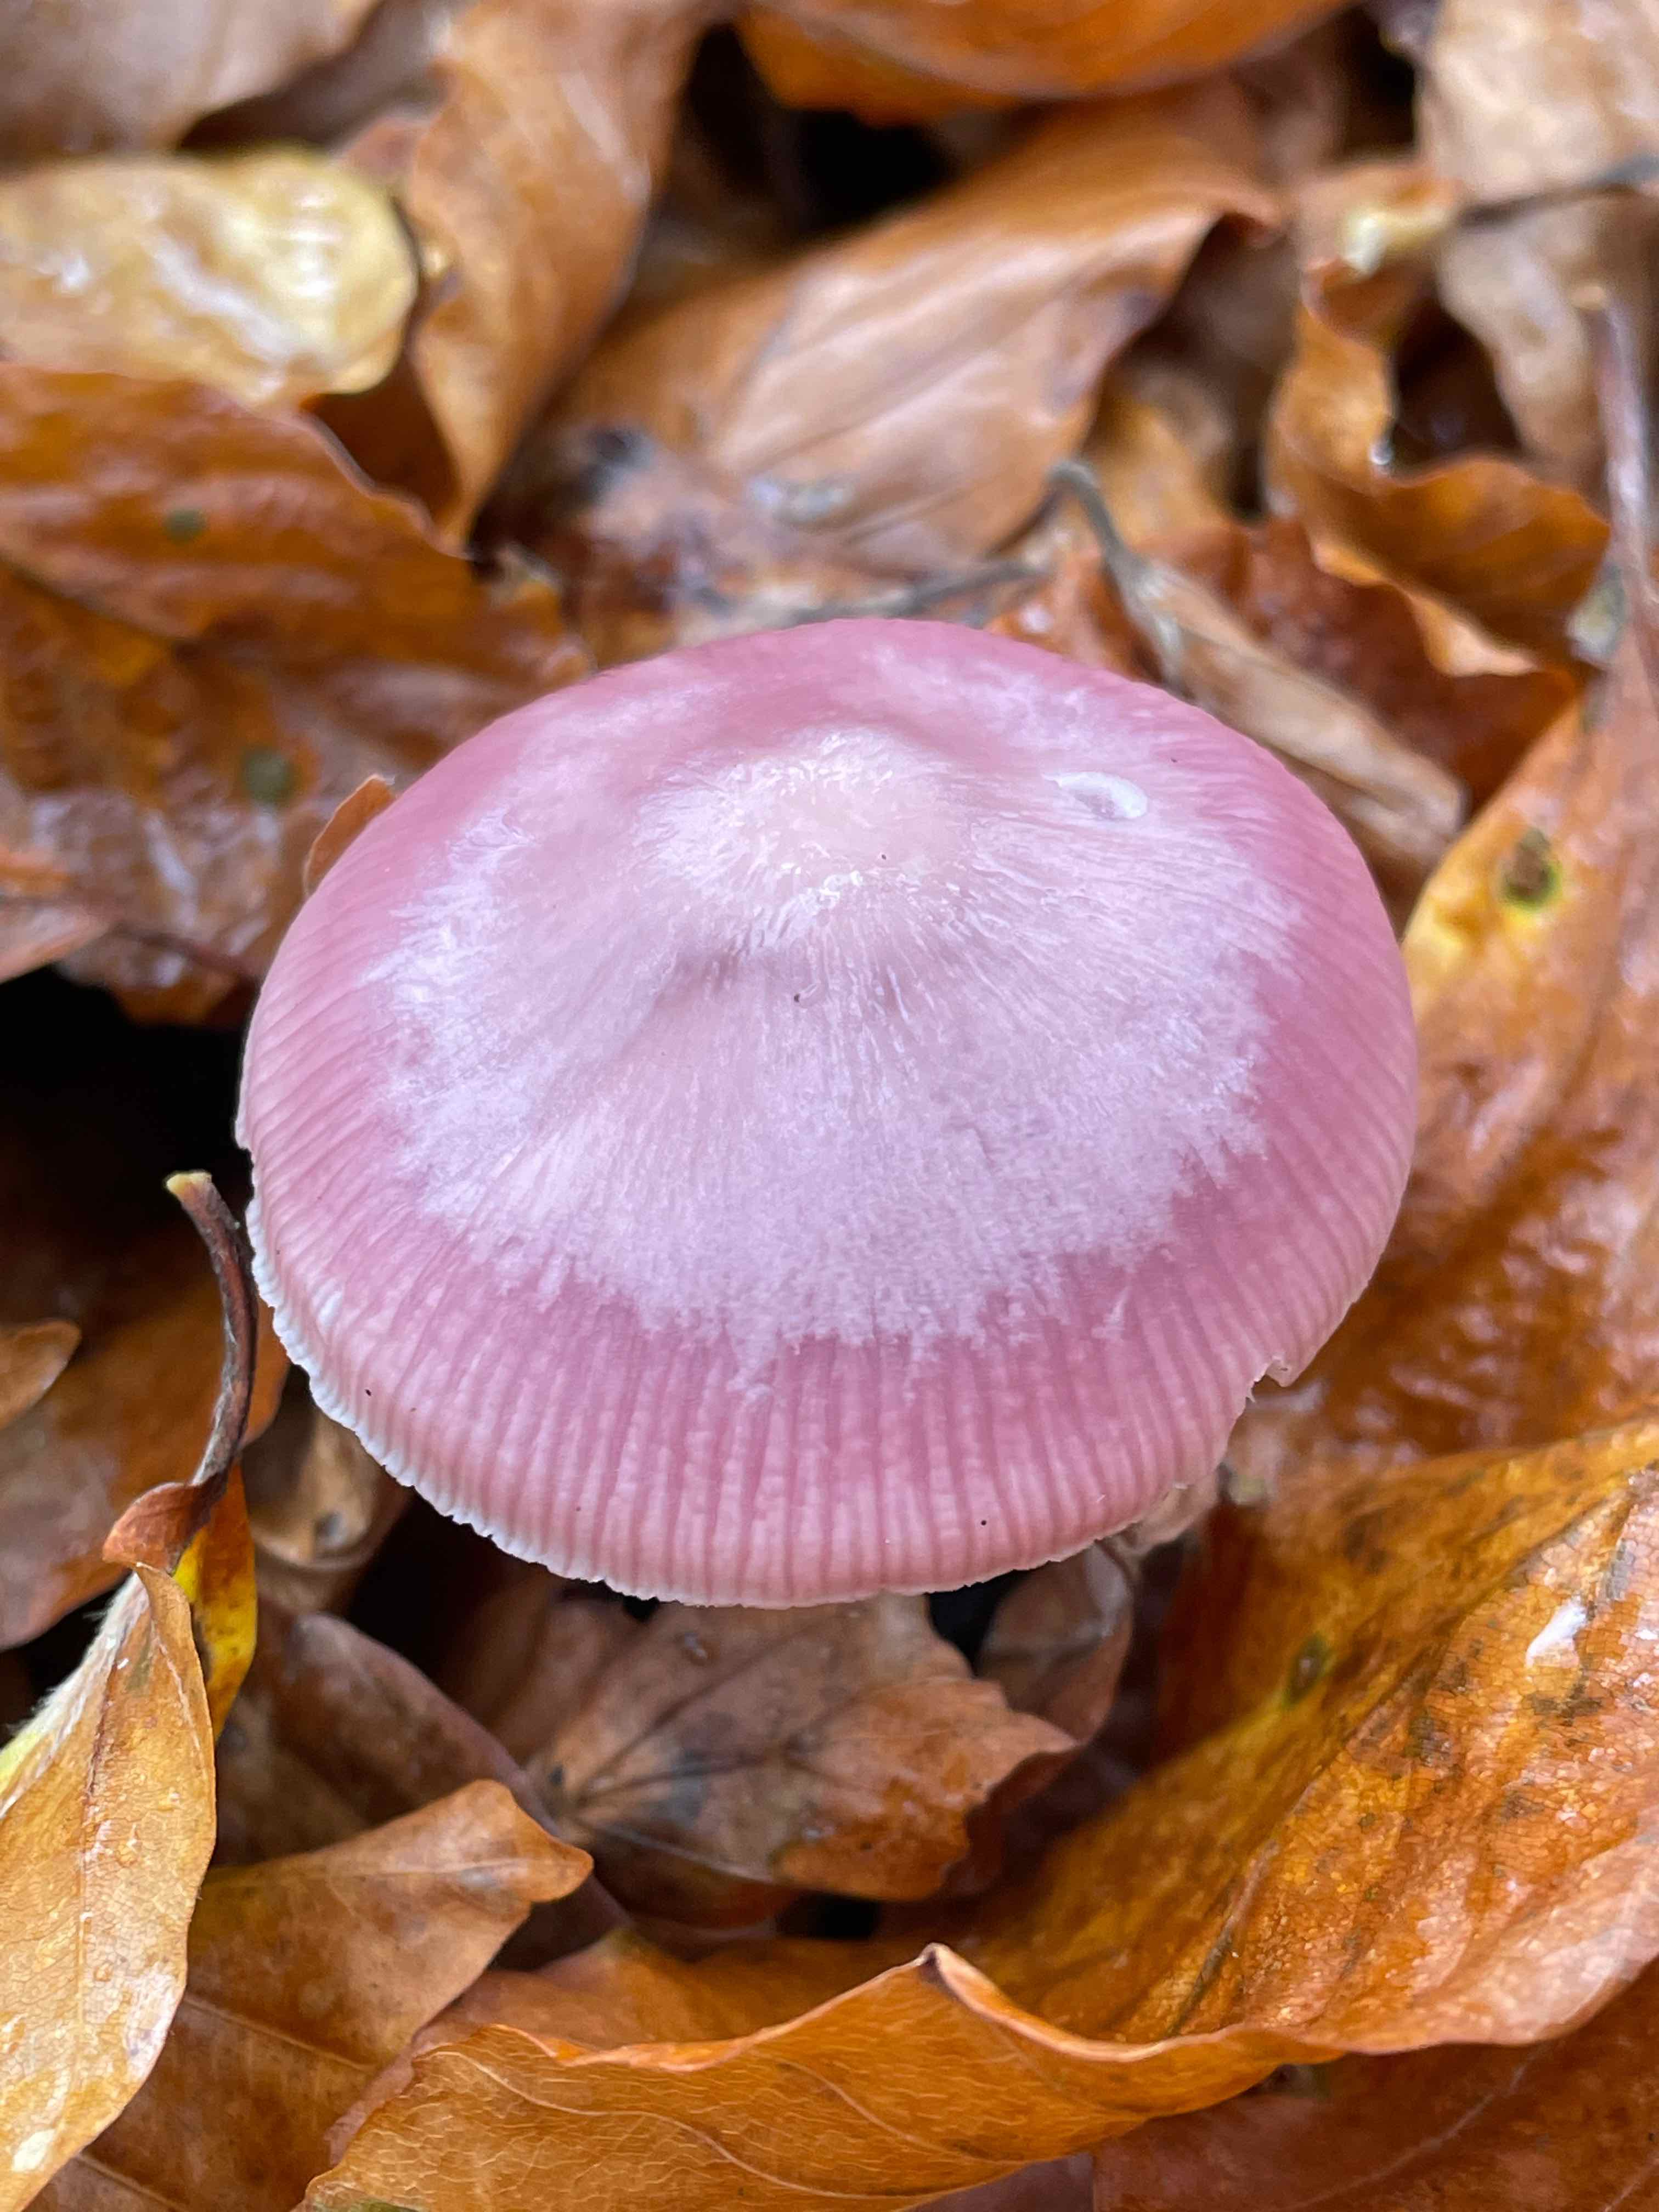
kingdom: Fungi
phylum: Basidiomycota
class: Agaricomycetes
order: Agaricales
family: Mycenaceae
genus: Mycena
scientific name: Mycena rosea
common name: rosa huesvamp
